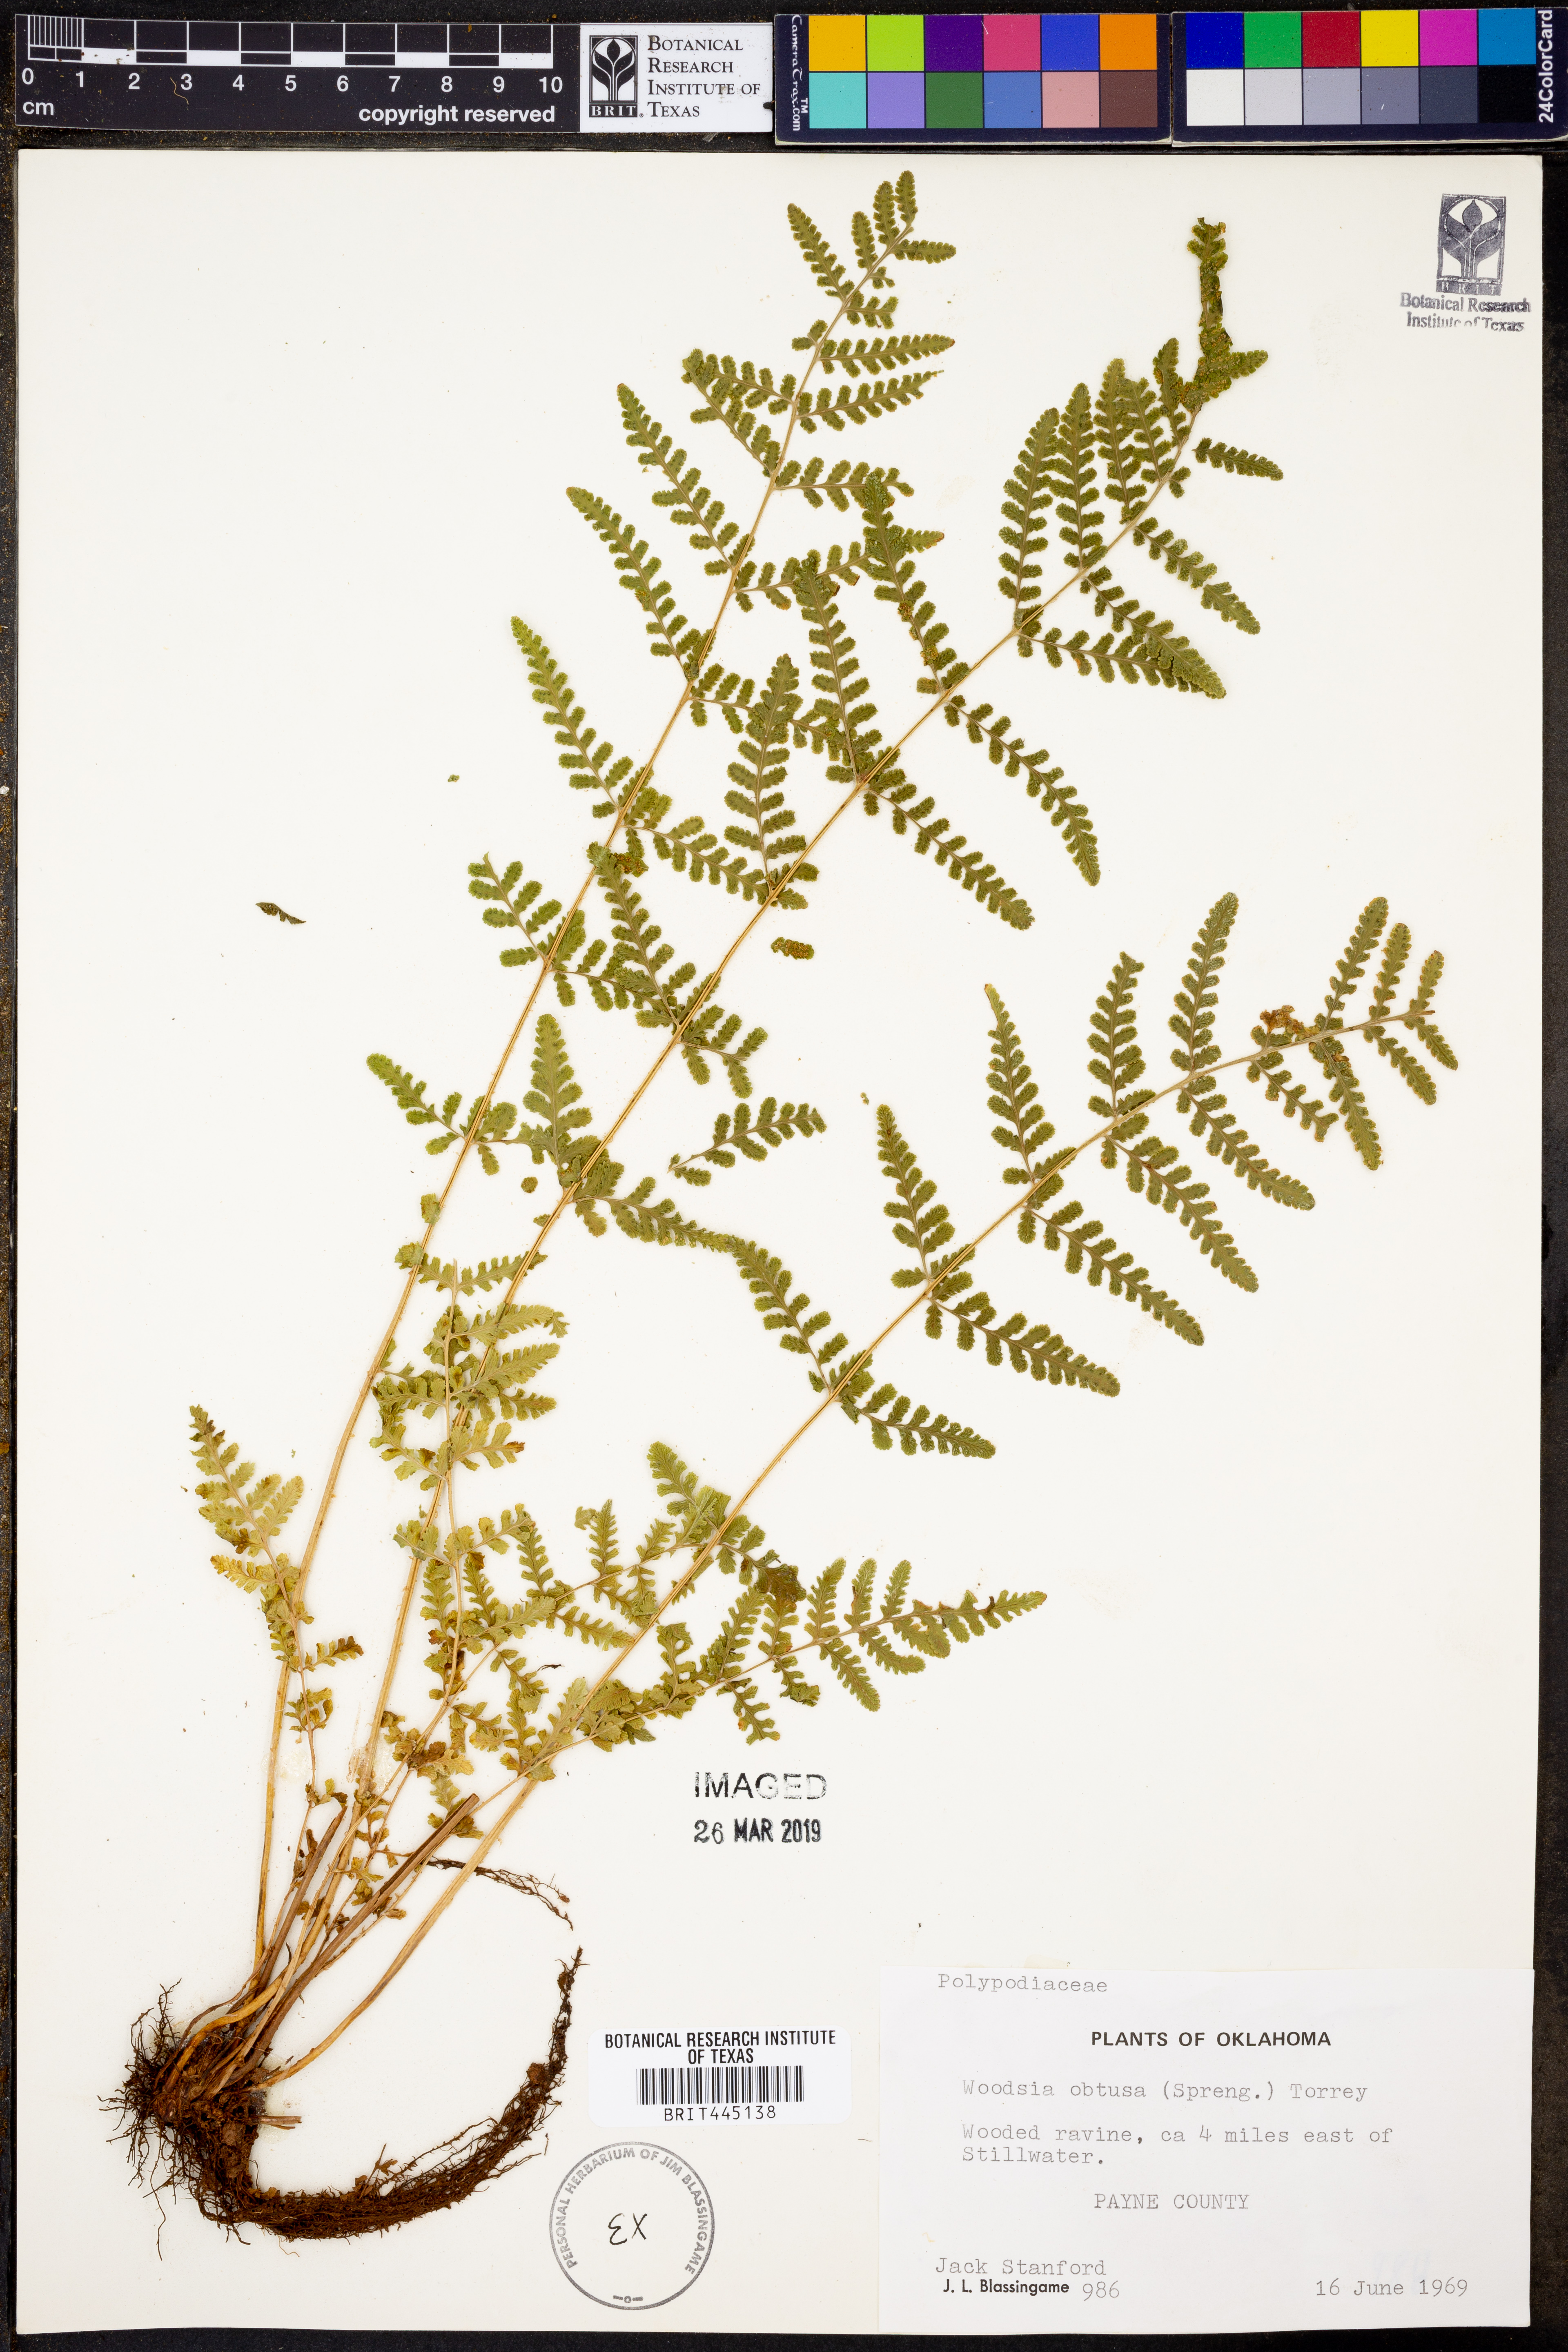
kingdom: Plantae
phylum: Tracheophyta
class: Polypodiopsida
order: Polypodiales
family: Woodsiaceae
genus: Physematium
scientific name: Physematium obtusum
